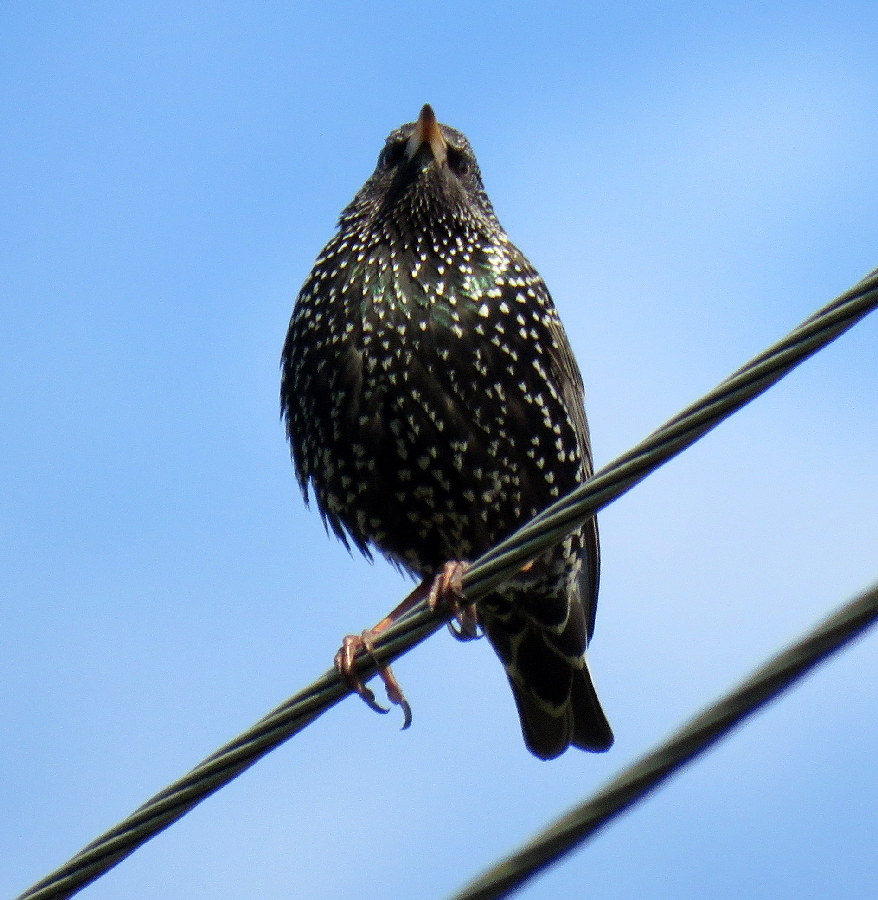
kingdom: Animalia
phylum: Chordata
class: Aves
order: Passeriformes
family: Sturnidae
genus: Sturnus
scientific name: Sturnus vulgaris
